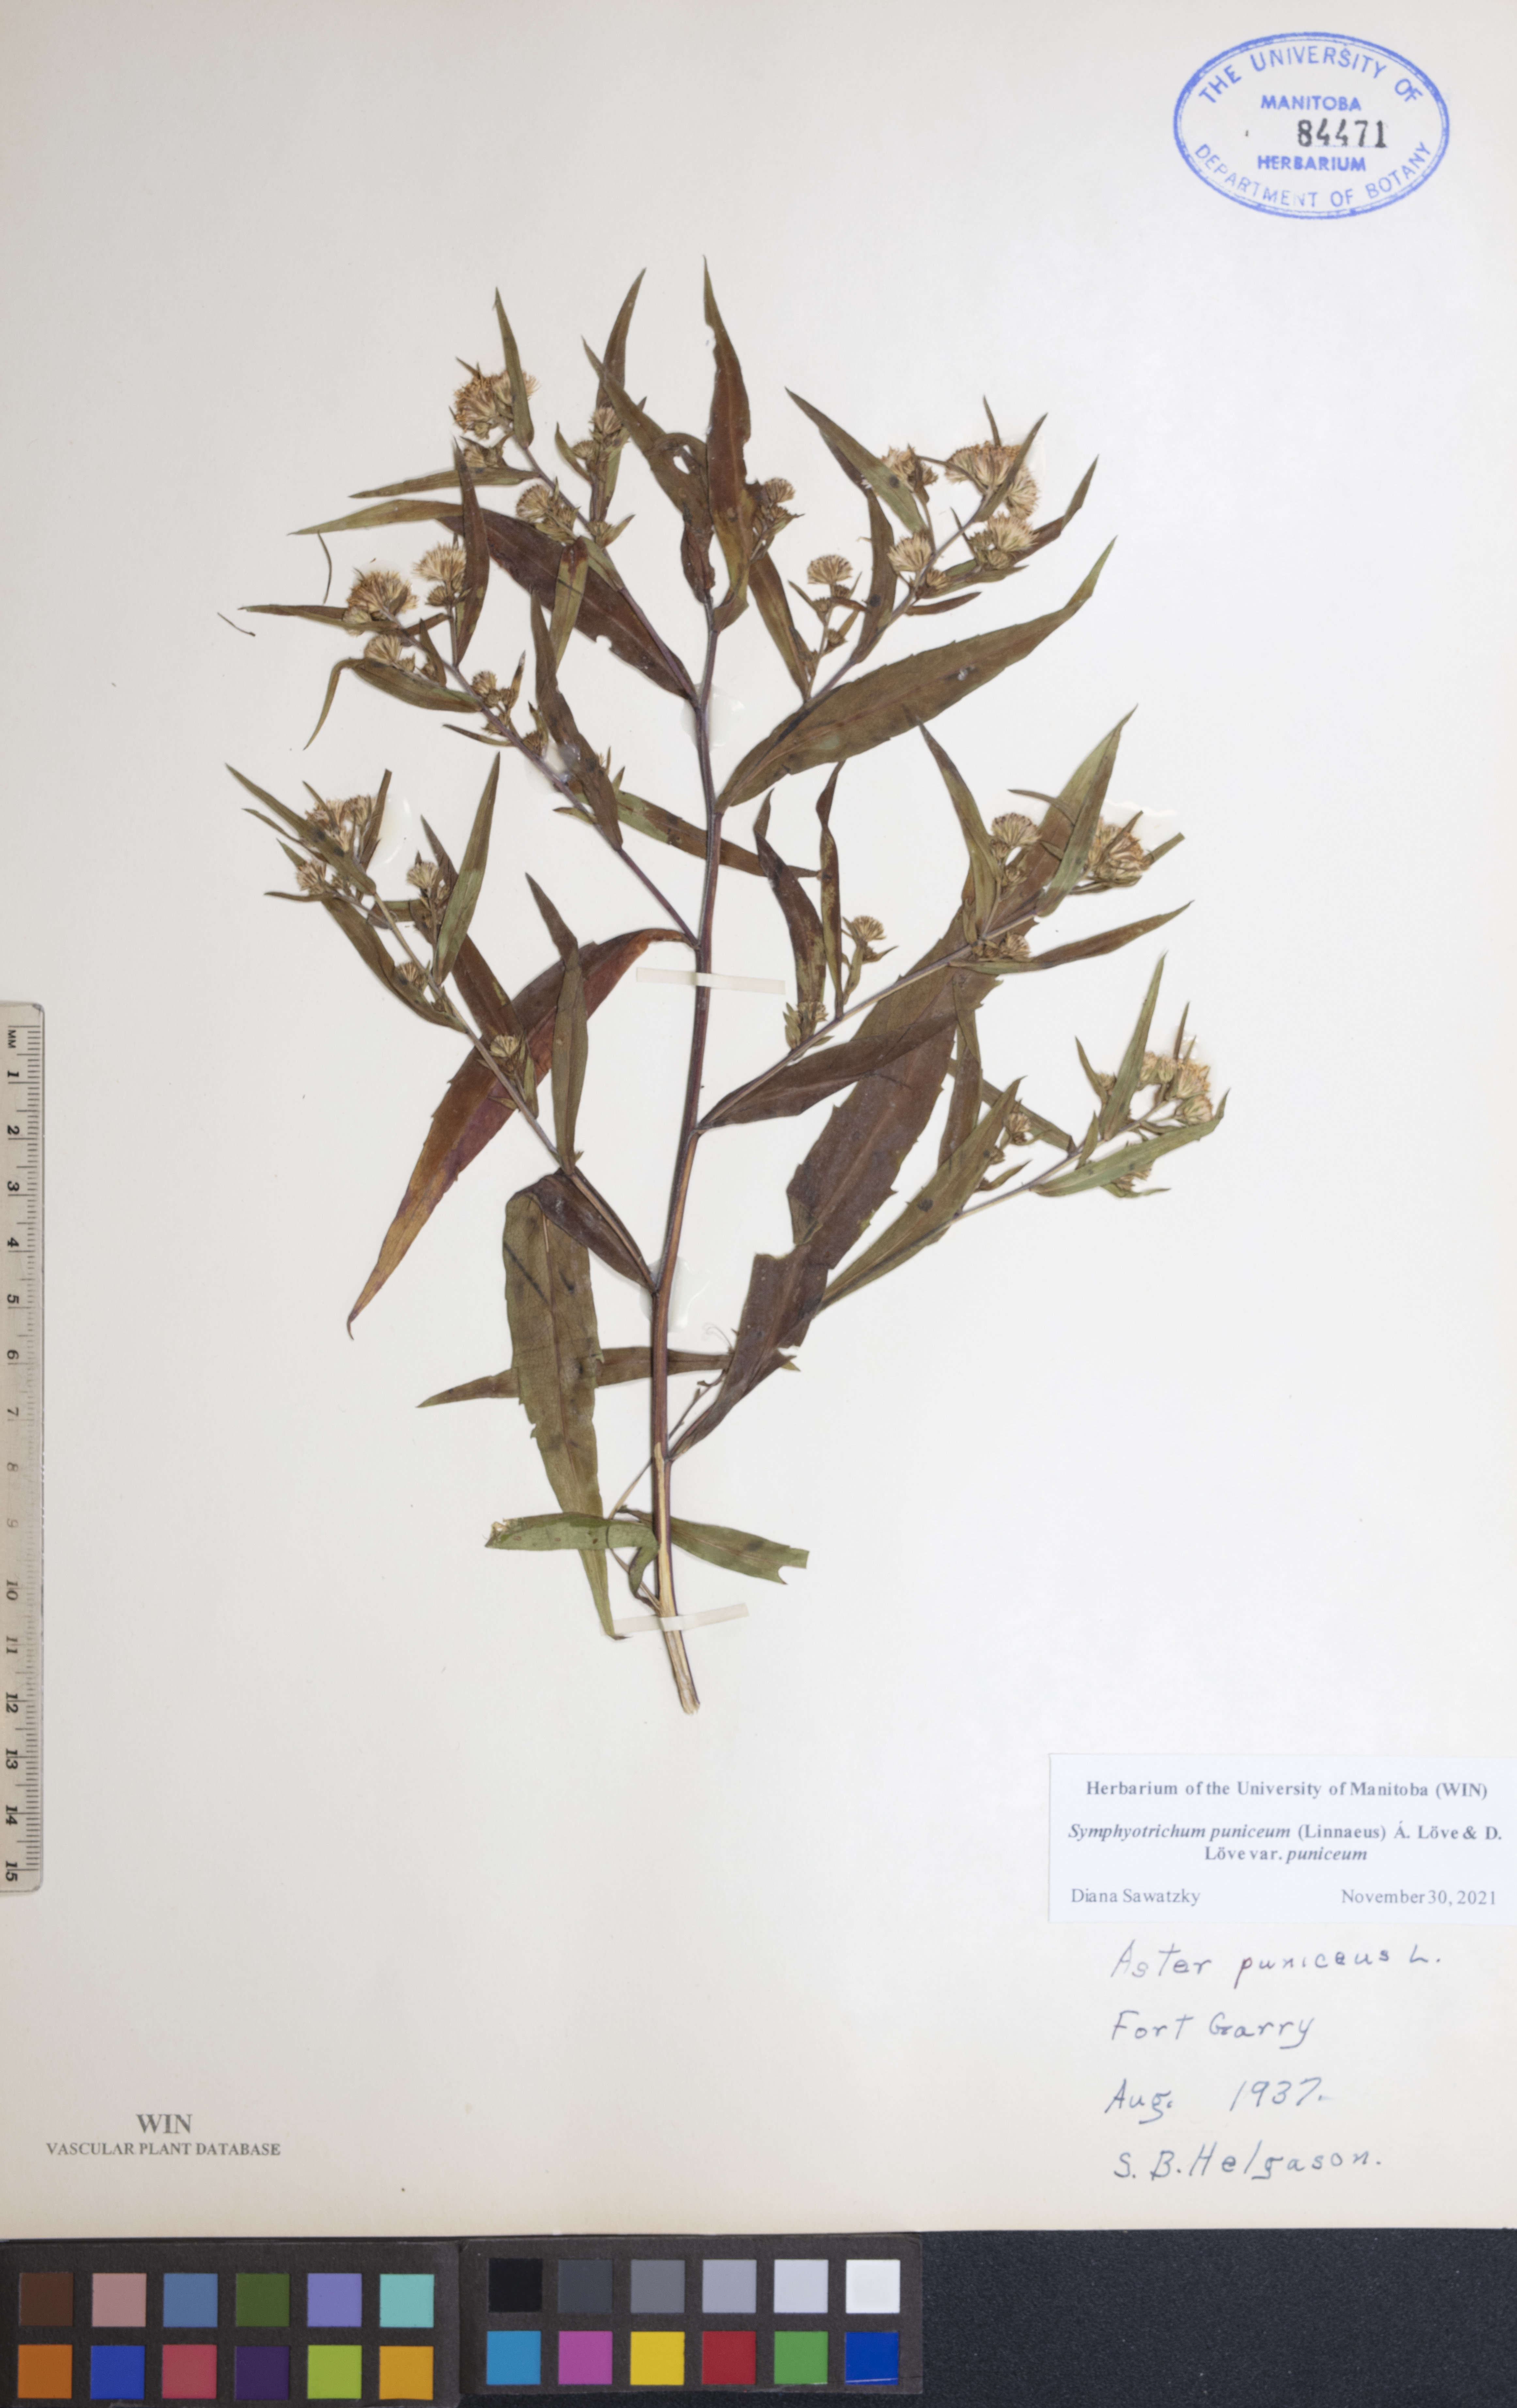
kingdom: Plantae
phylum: Tracheophyta
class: Magnoliopsida
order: Asterales
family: Asteraceae
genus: Symphyotrichum
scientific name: Symphyotrichum puniceum
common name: Bog aster
